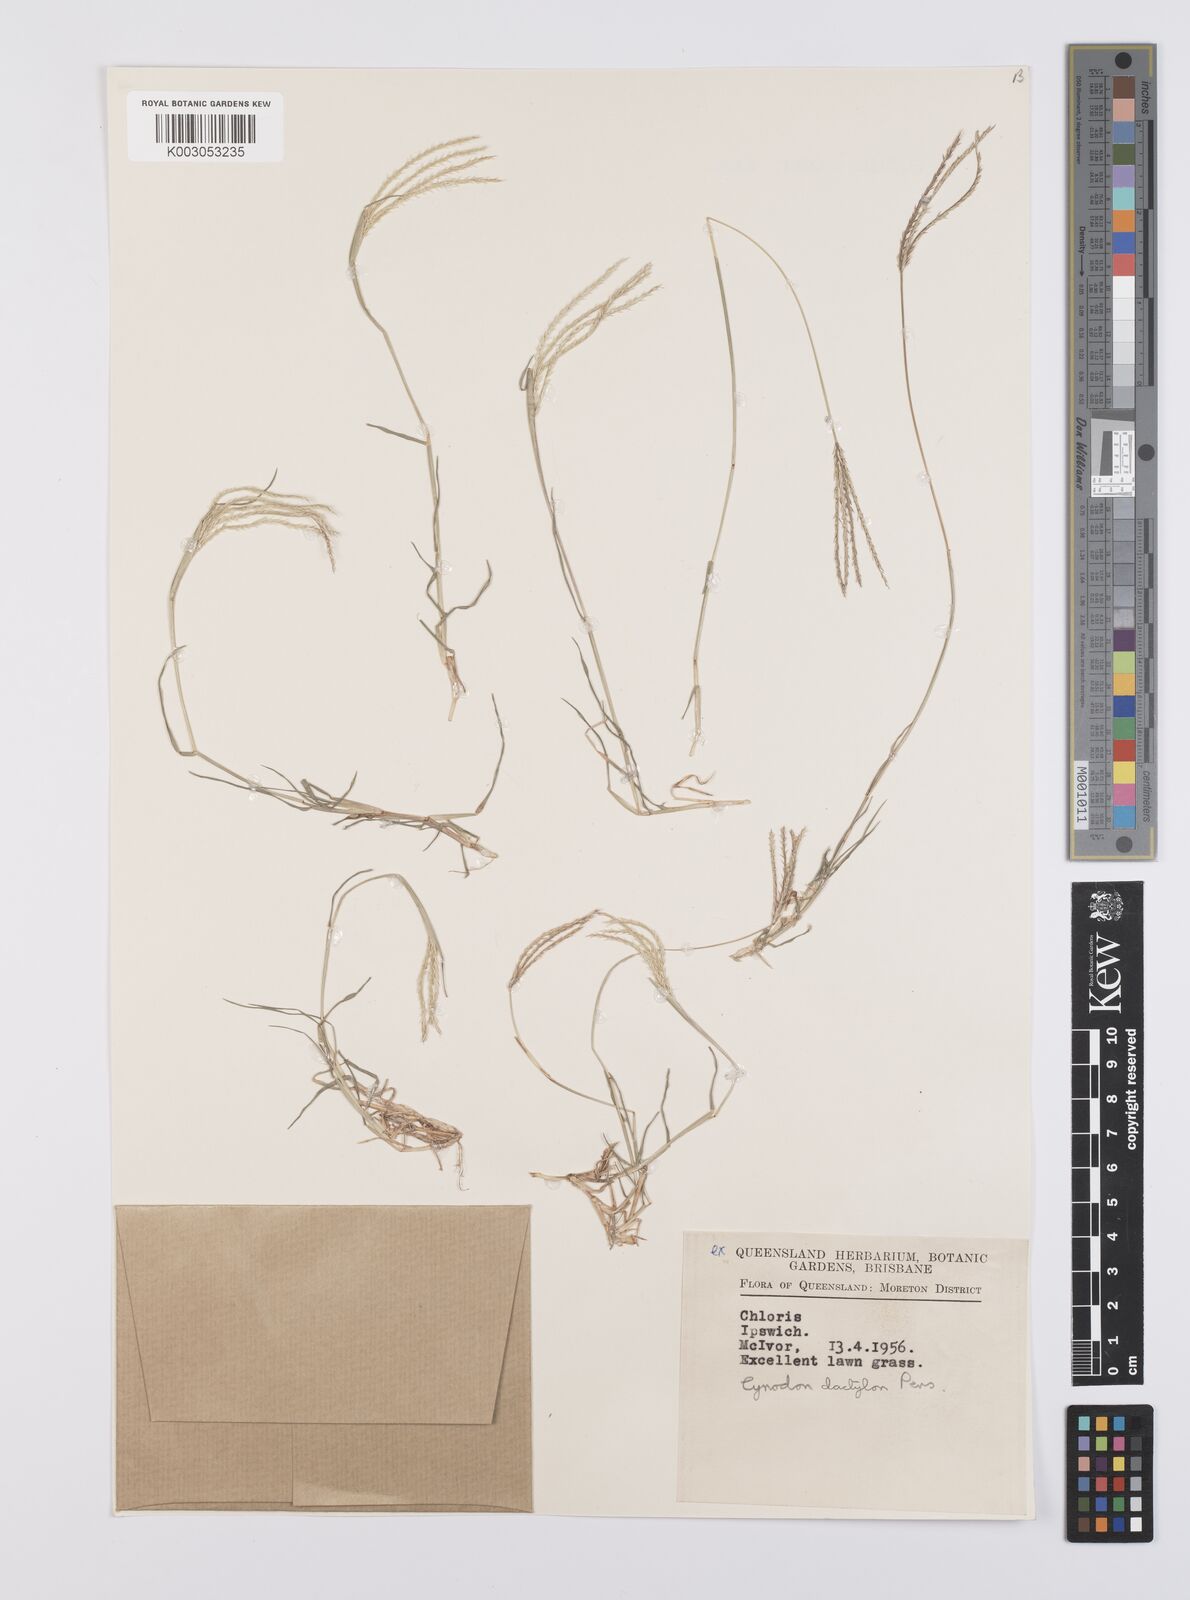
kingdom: Plantae
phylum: Tracheophyta
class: Liliopsida
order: Poales
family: Poaceae
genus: Cynodon
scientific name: Cynodon dactylon
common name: Bermuda grass
